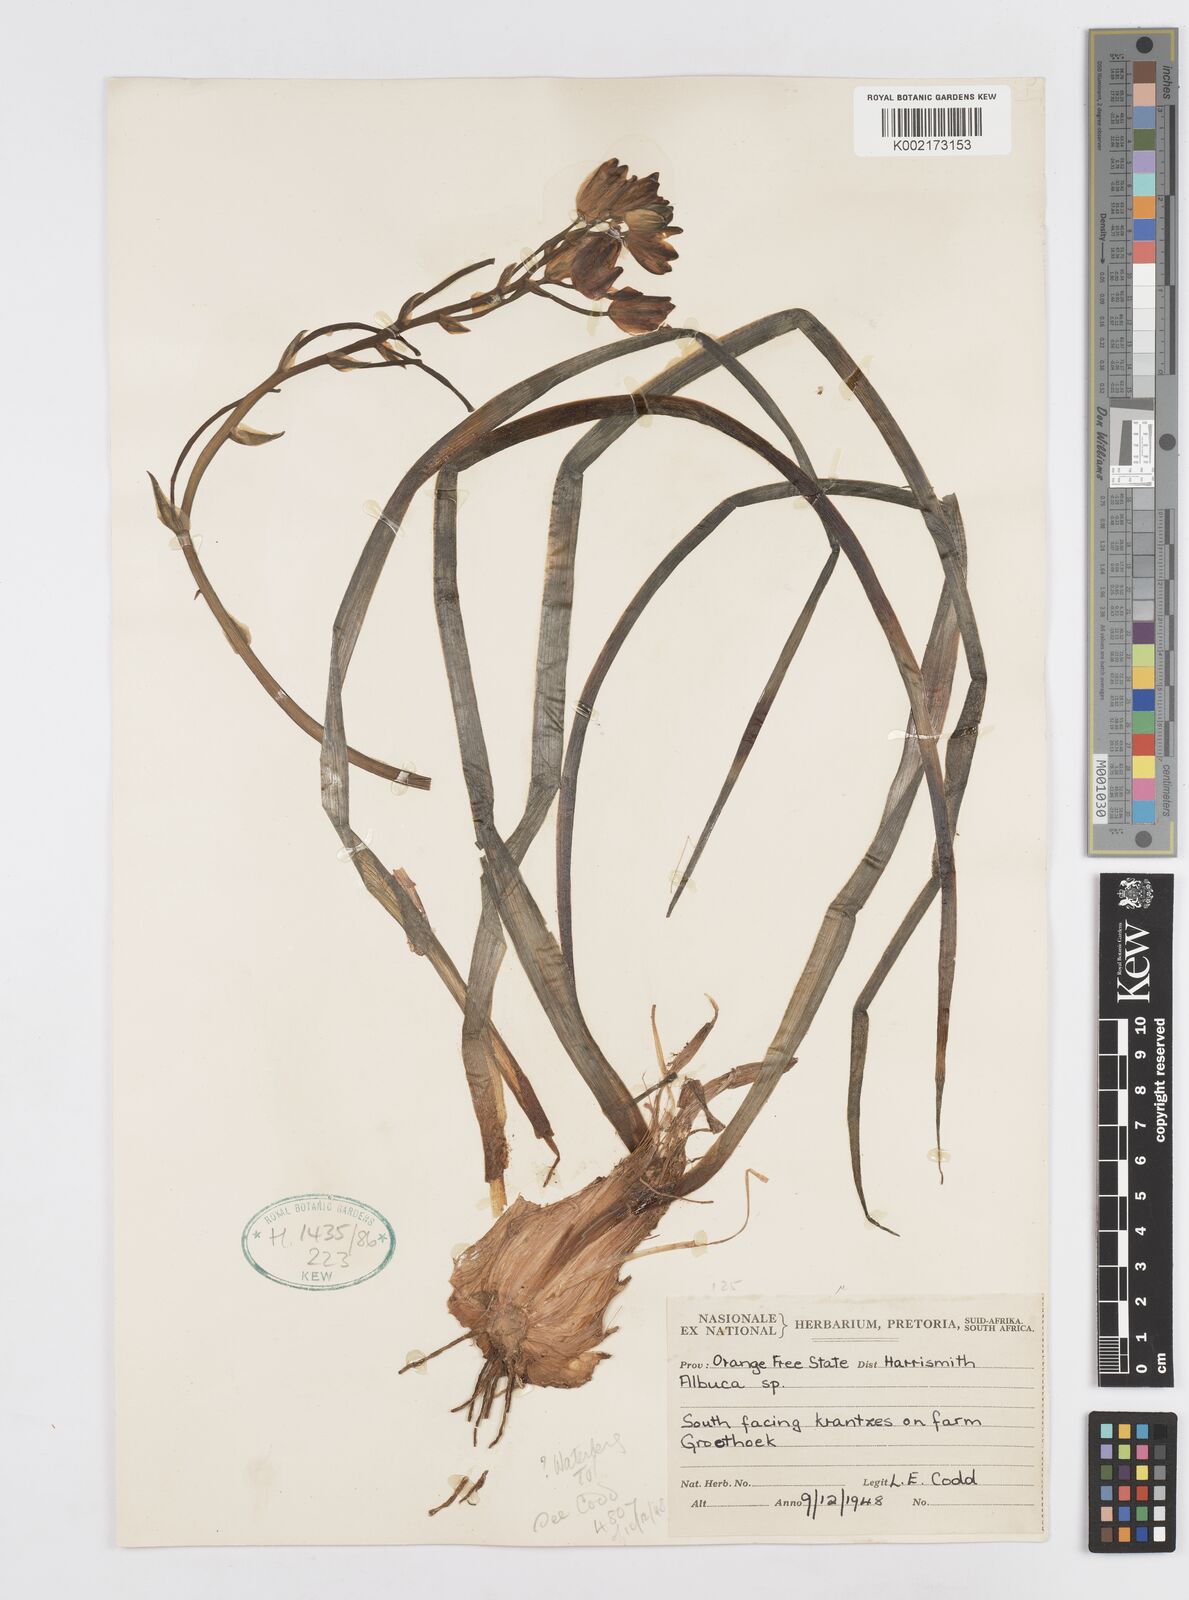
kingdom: Plantae
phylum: Tracheophyta
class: Liliopsida
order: Asparagales
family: Asparagaceae
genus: Albuca
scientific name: Albuca
